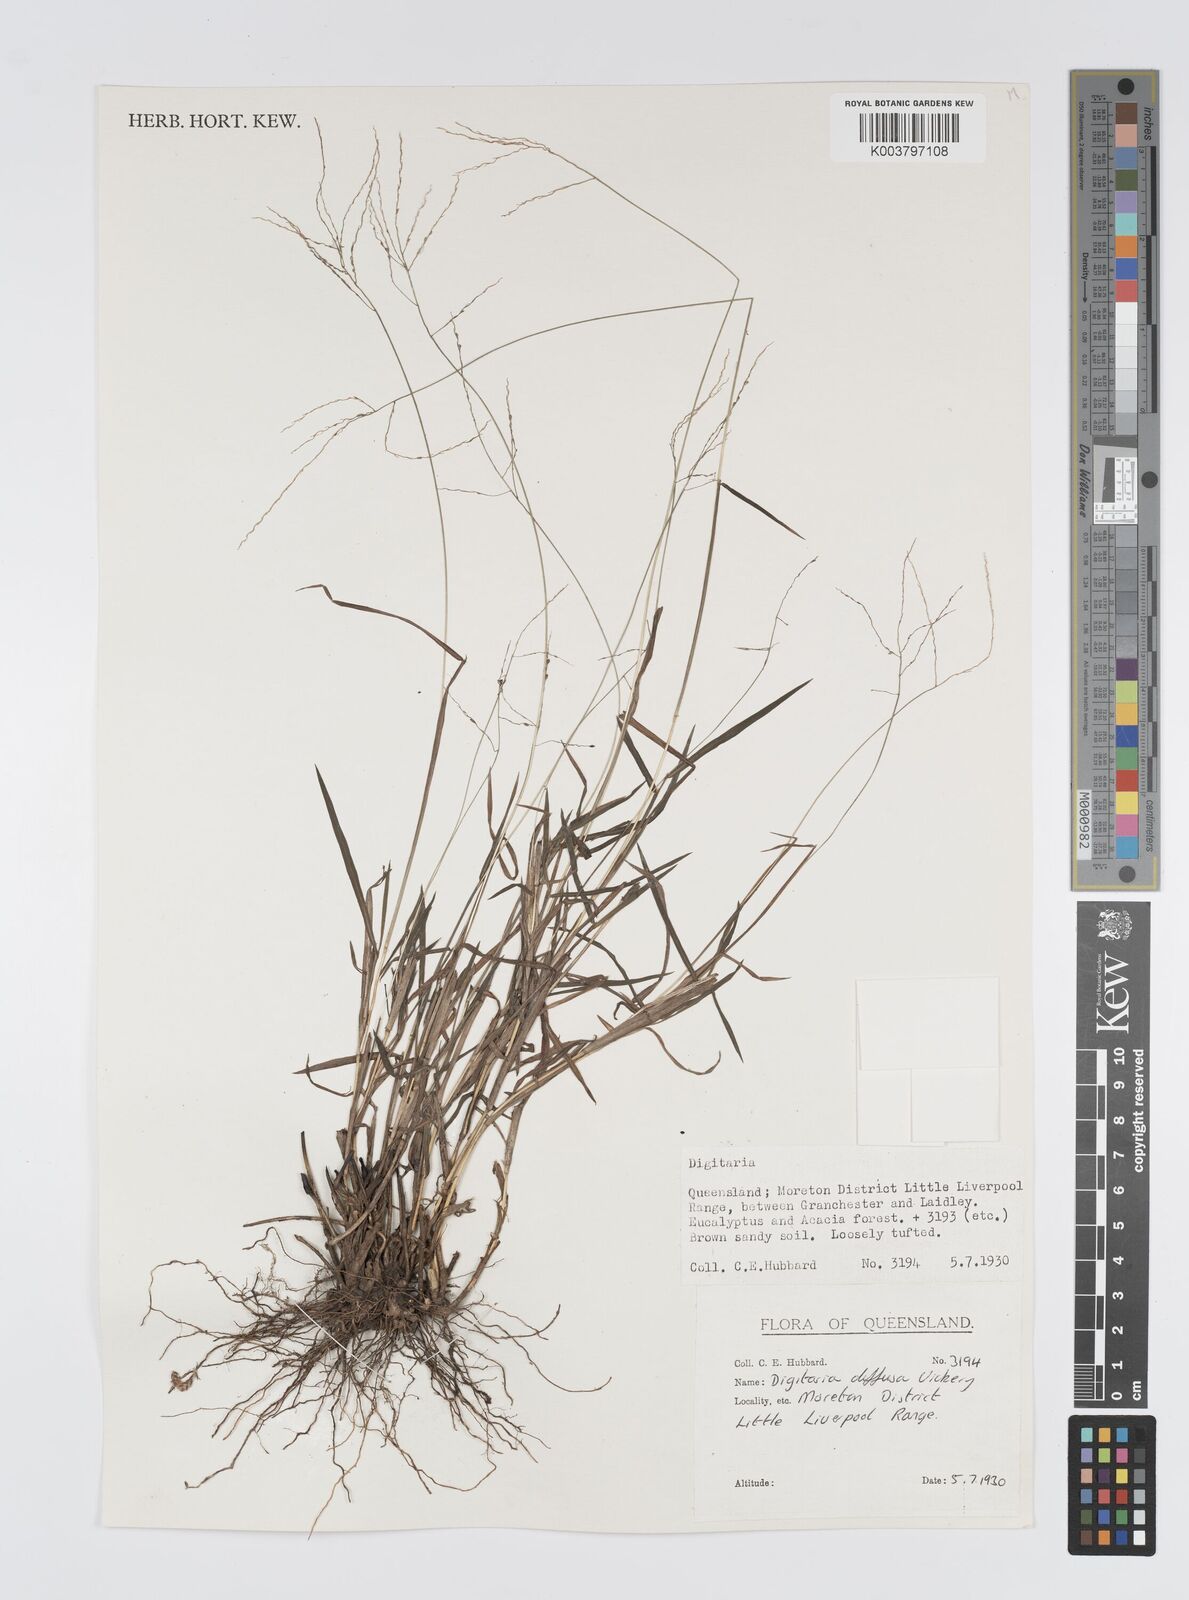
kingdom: Plantae
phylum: Tracheophyta
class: Liliopsida
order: Poales
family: Poaceae
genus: Digitaria
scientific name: Digitaria diffusa
